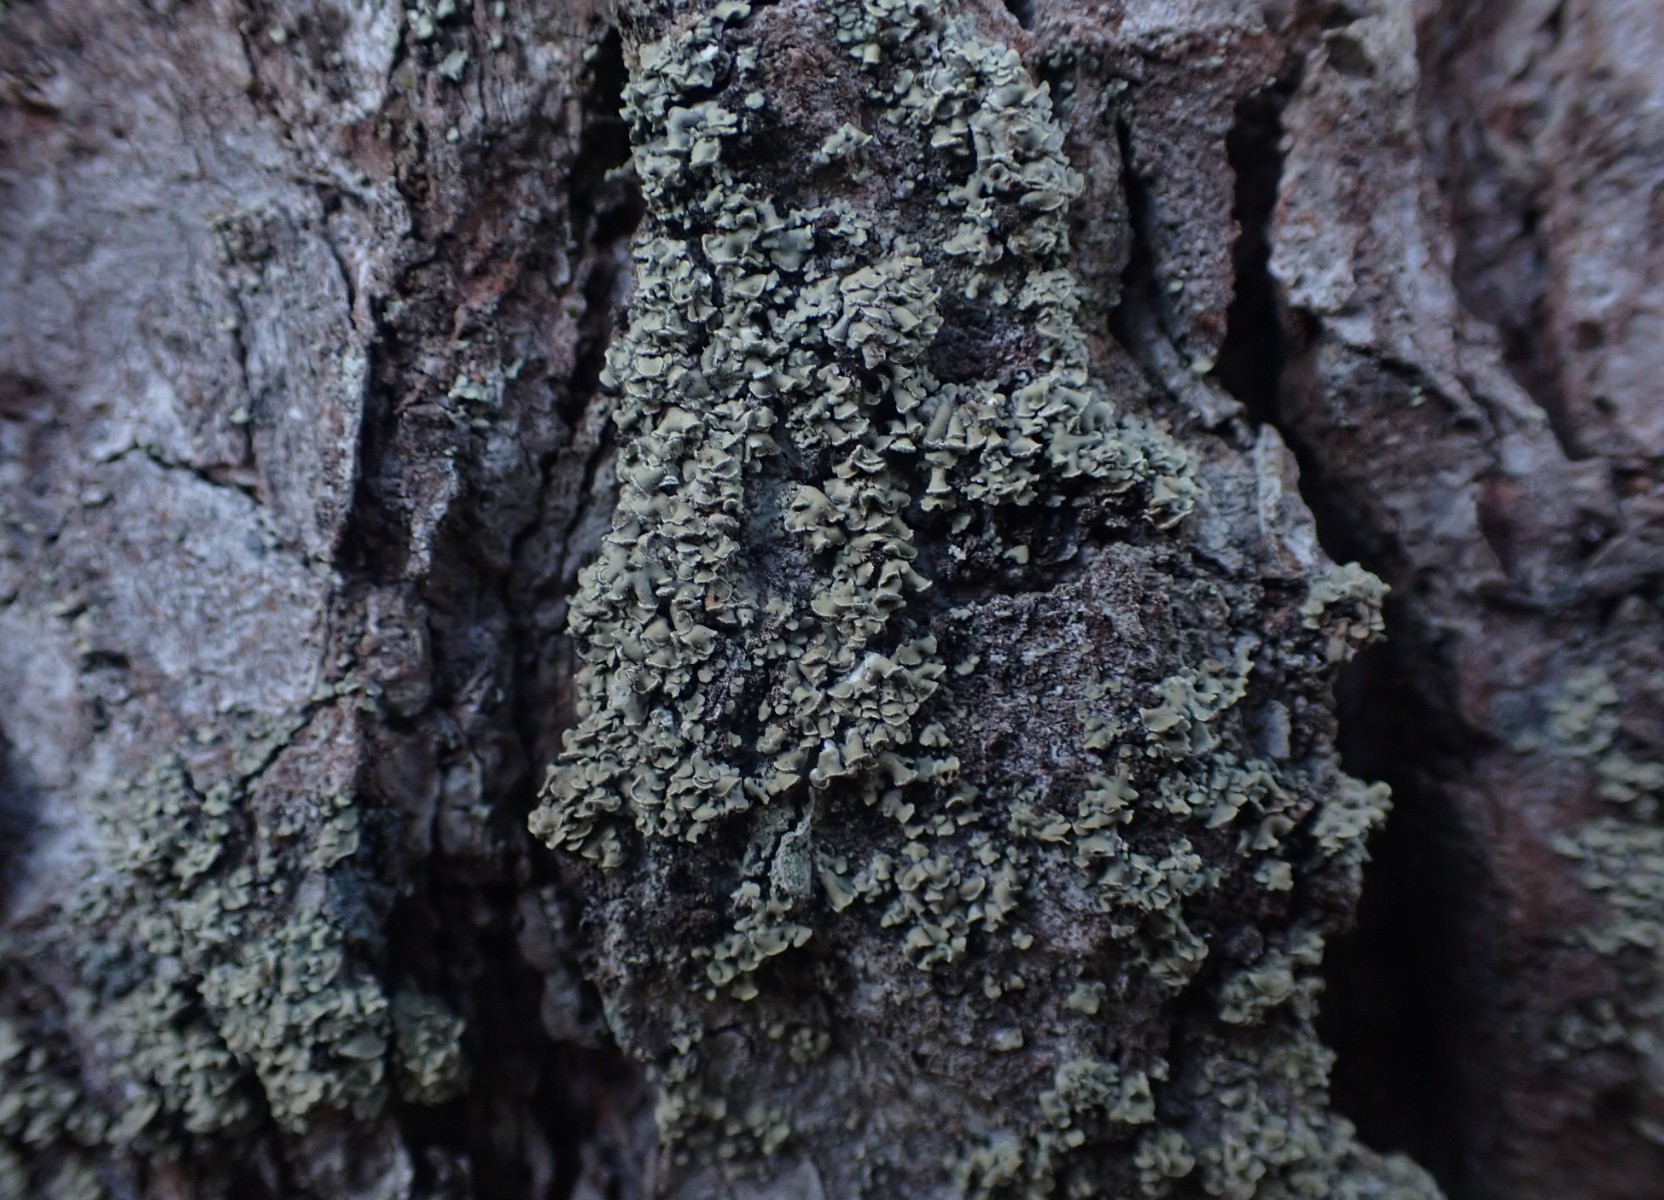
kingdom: Fungi
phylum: Ascomycota
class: Lecanoromycetes
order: Umbilicariales
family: Ophioparmaceae
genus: Hypocenomyce
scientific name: Hypocenomyce scalaris
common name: småskællet muslinglav
